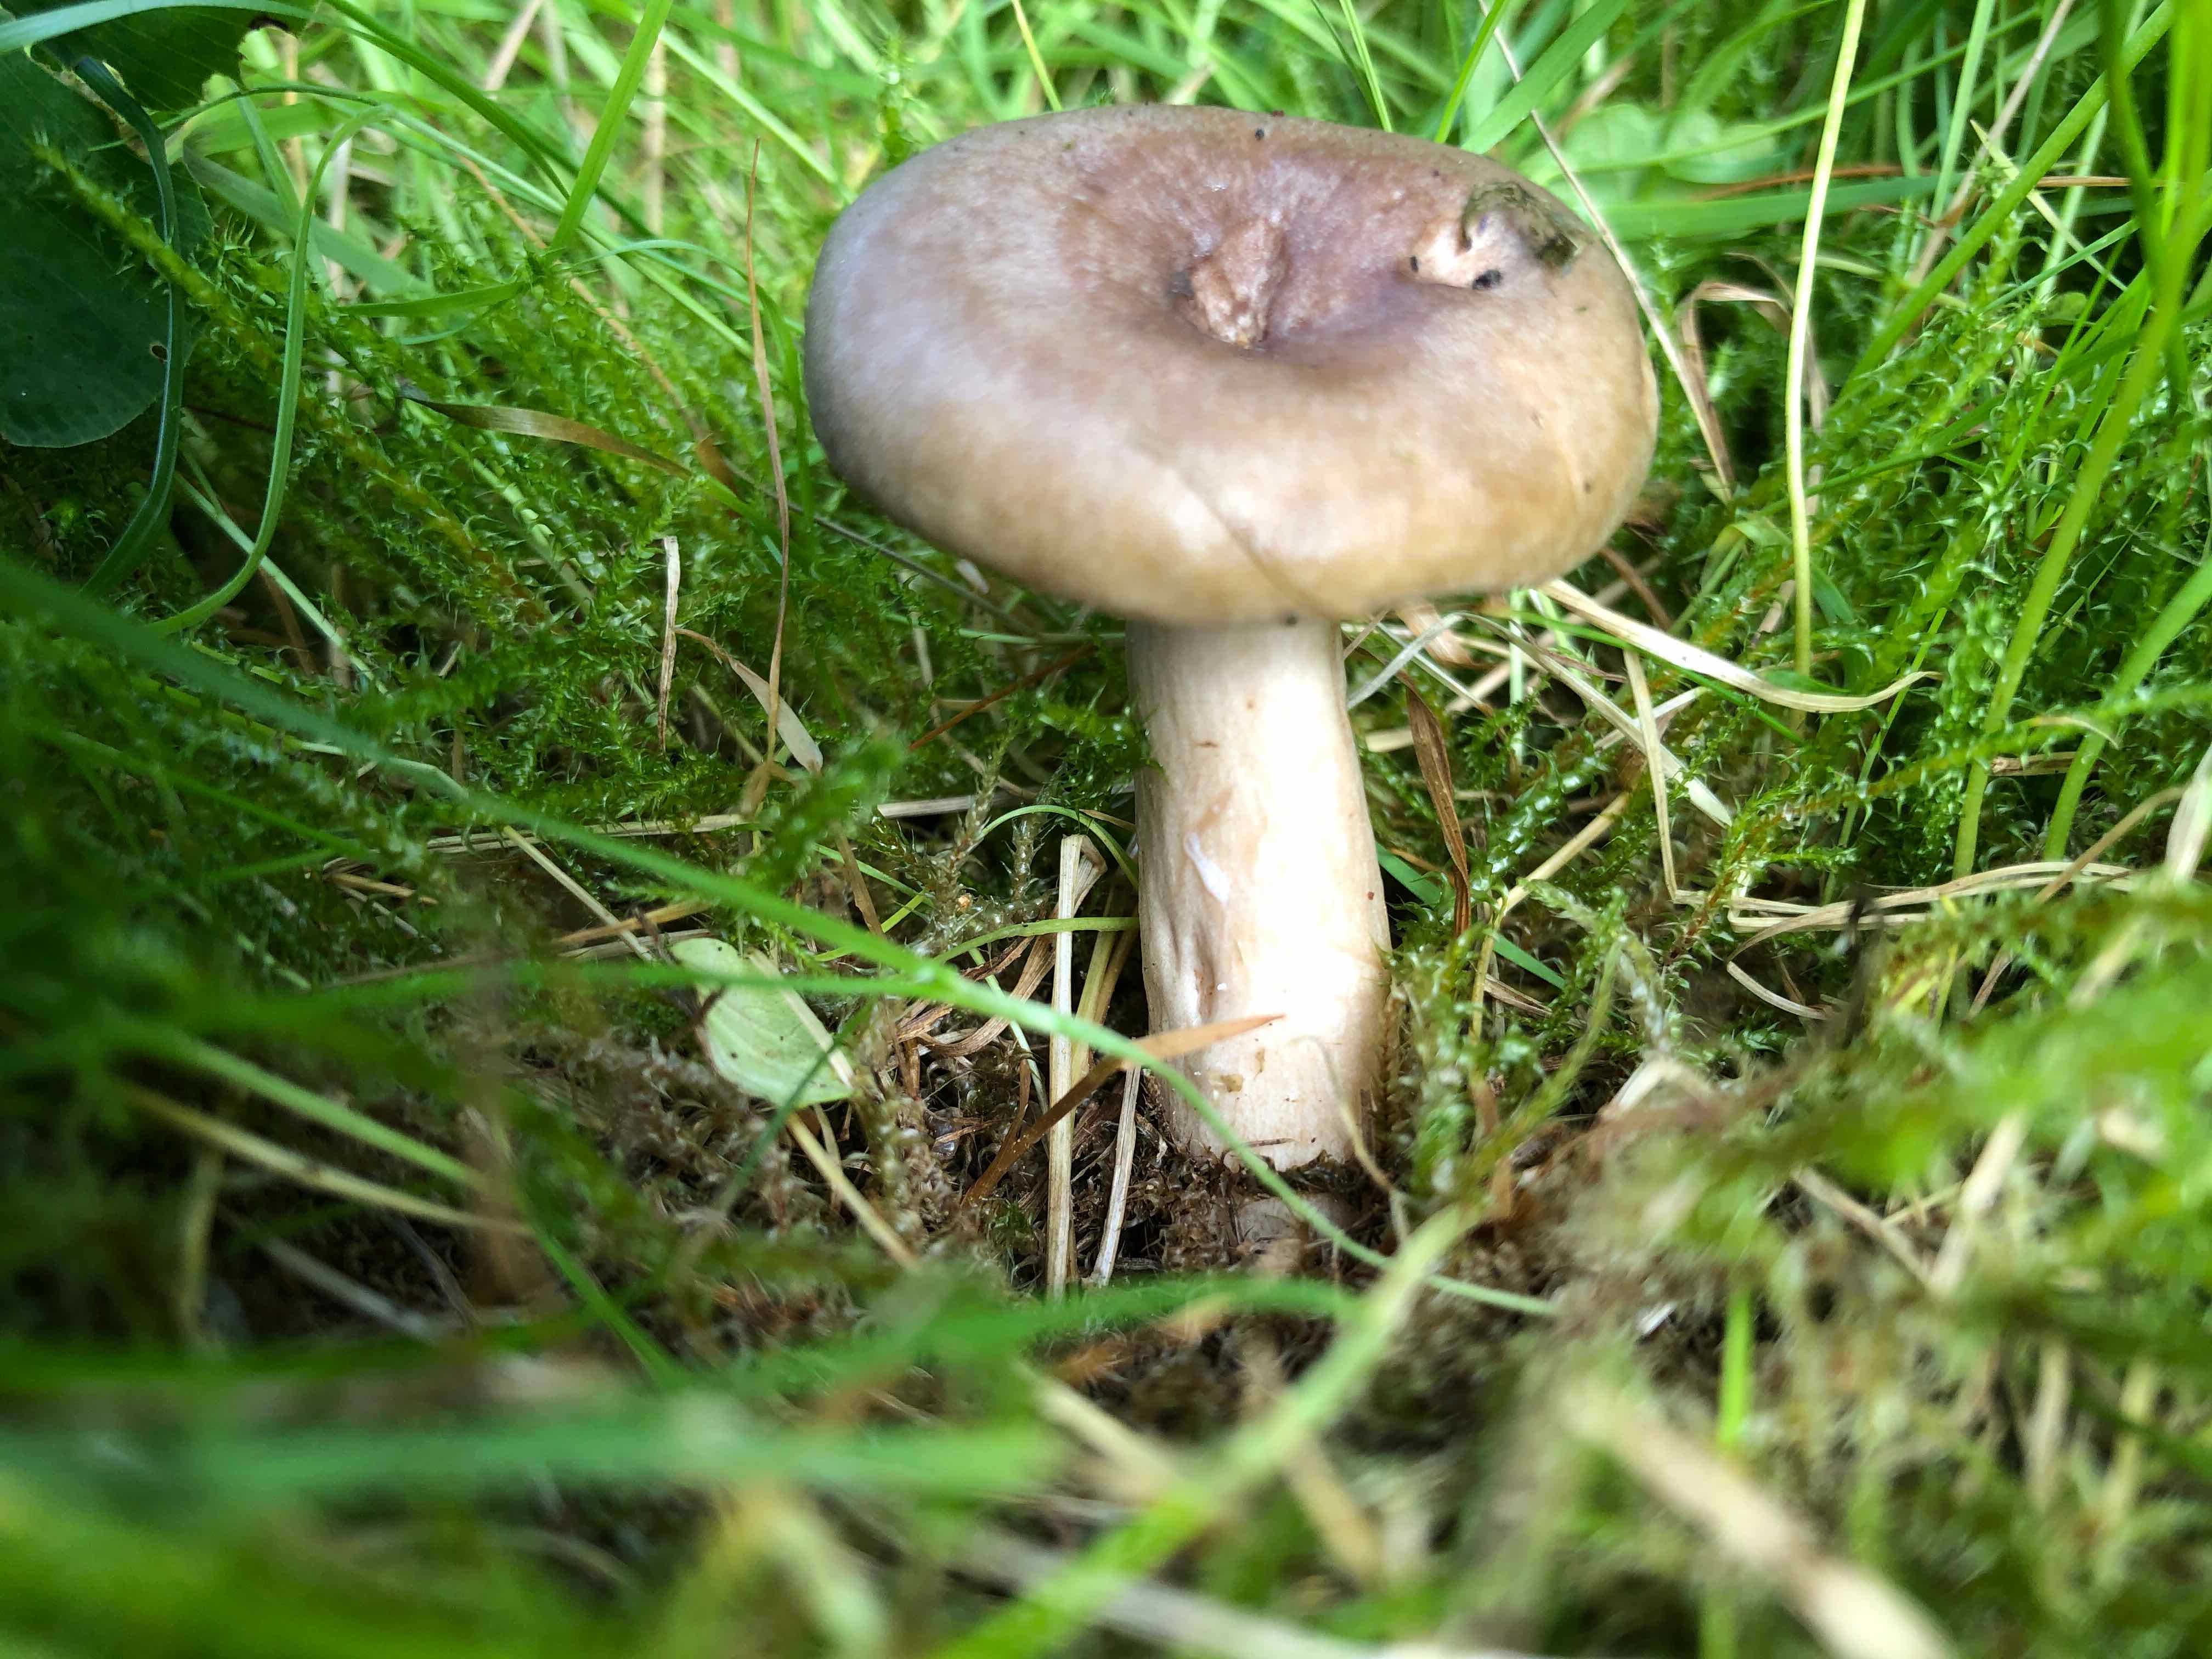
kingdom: Fungi
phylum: Basidiomycota
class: Agaricomycetes
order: Russulales
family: Russulaceae
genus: Lactarius
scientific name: Lactarius pyrogalus
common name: hassel-mælkehat
